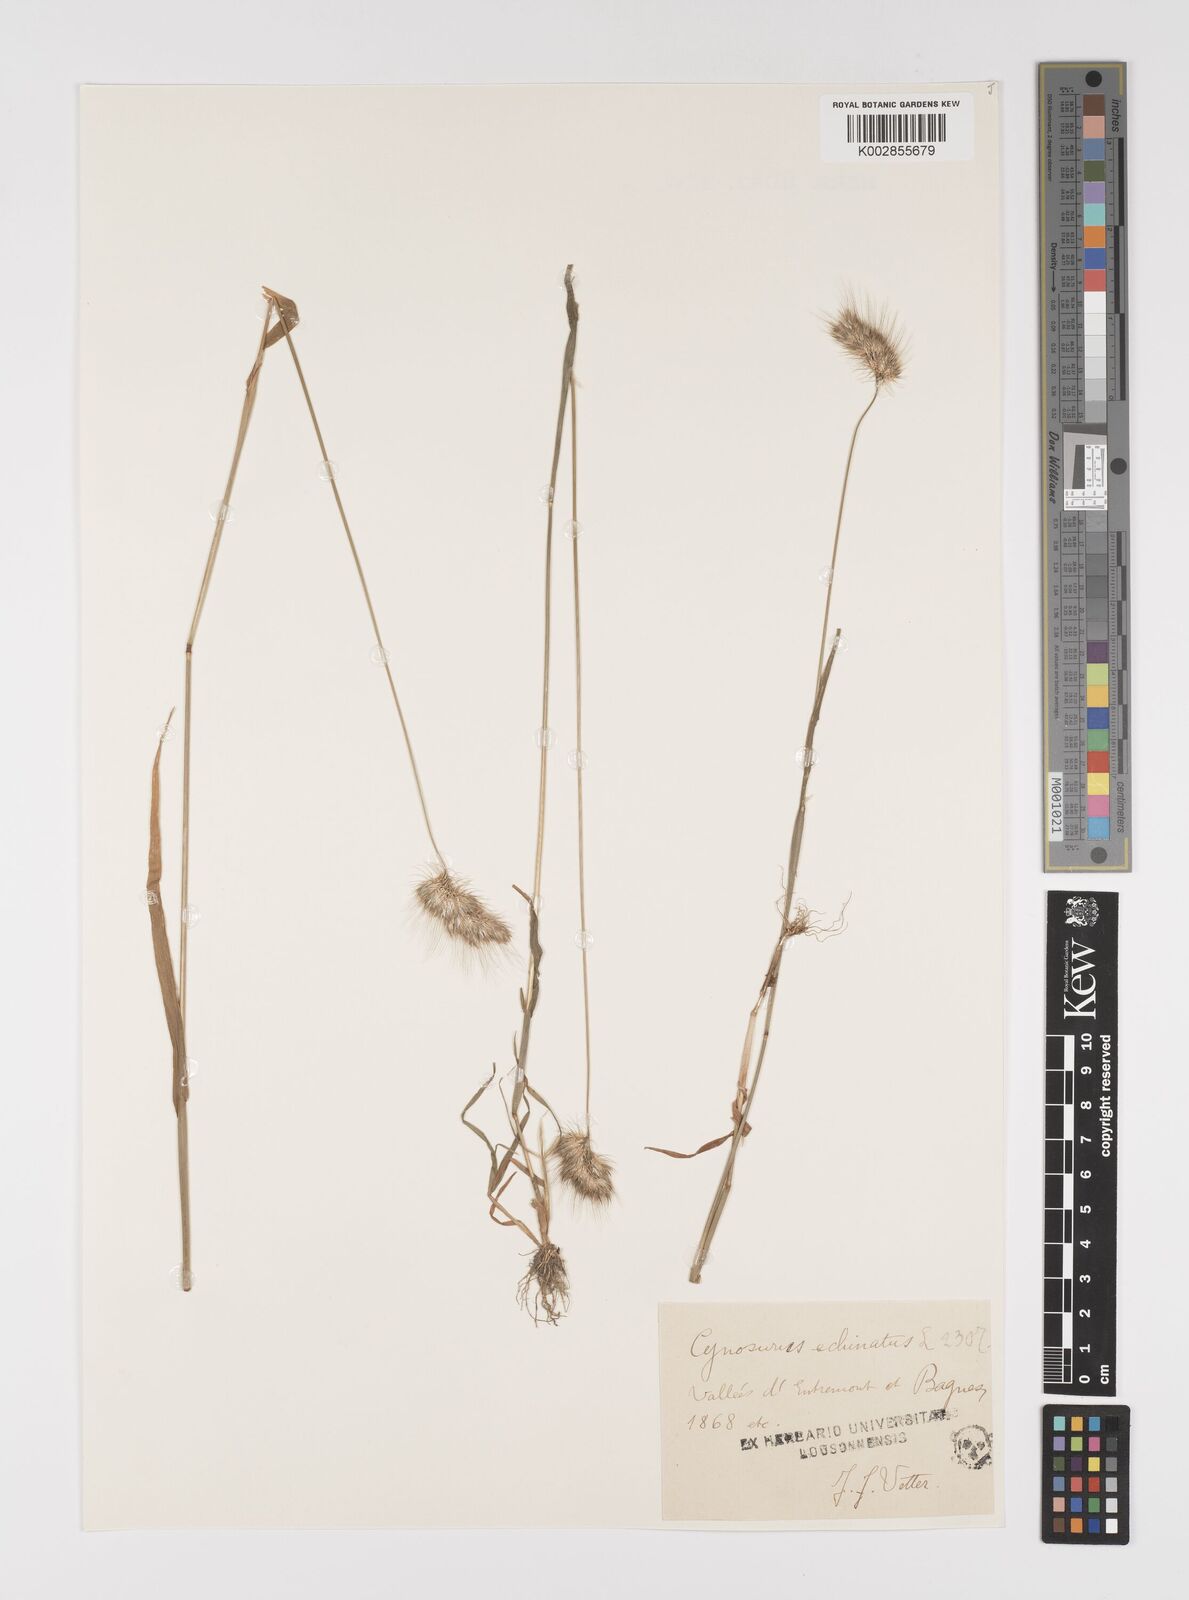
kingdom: Plantae
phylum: Tracheophyta
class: Liliopsida
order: Poales
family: Poaceae
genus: Cynosurus
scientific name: Cynosurus echinatus
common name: Rough dog's-tail
